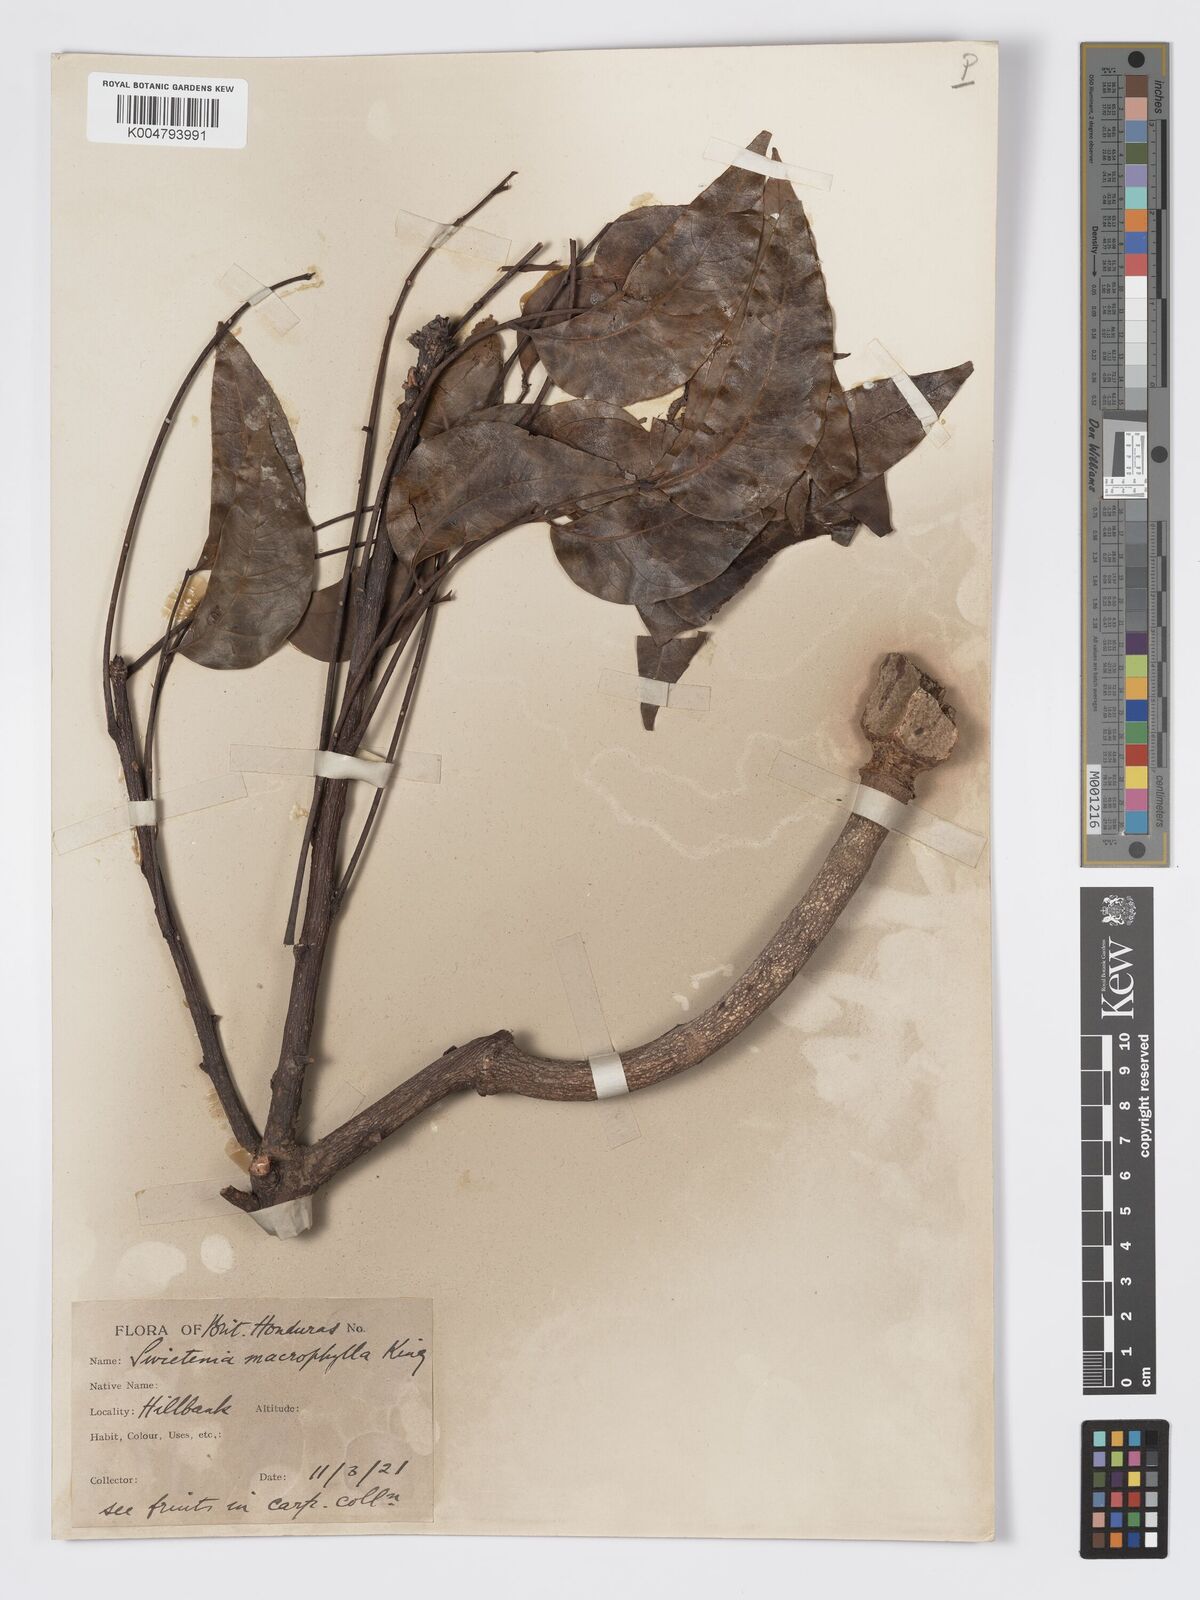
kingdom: Plantae
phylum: Tracheophyta
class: Magnoliopsida
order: Sapindales
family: Meliaceae
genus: Swietenia
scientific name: Swietenia macrophylla
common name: Honduras mahogany
